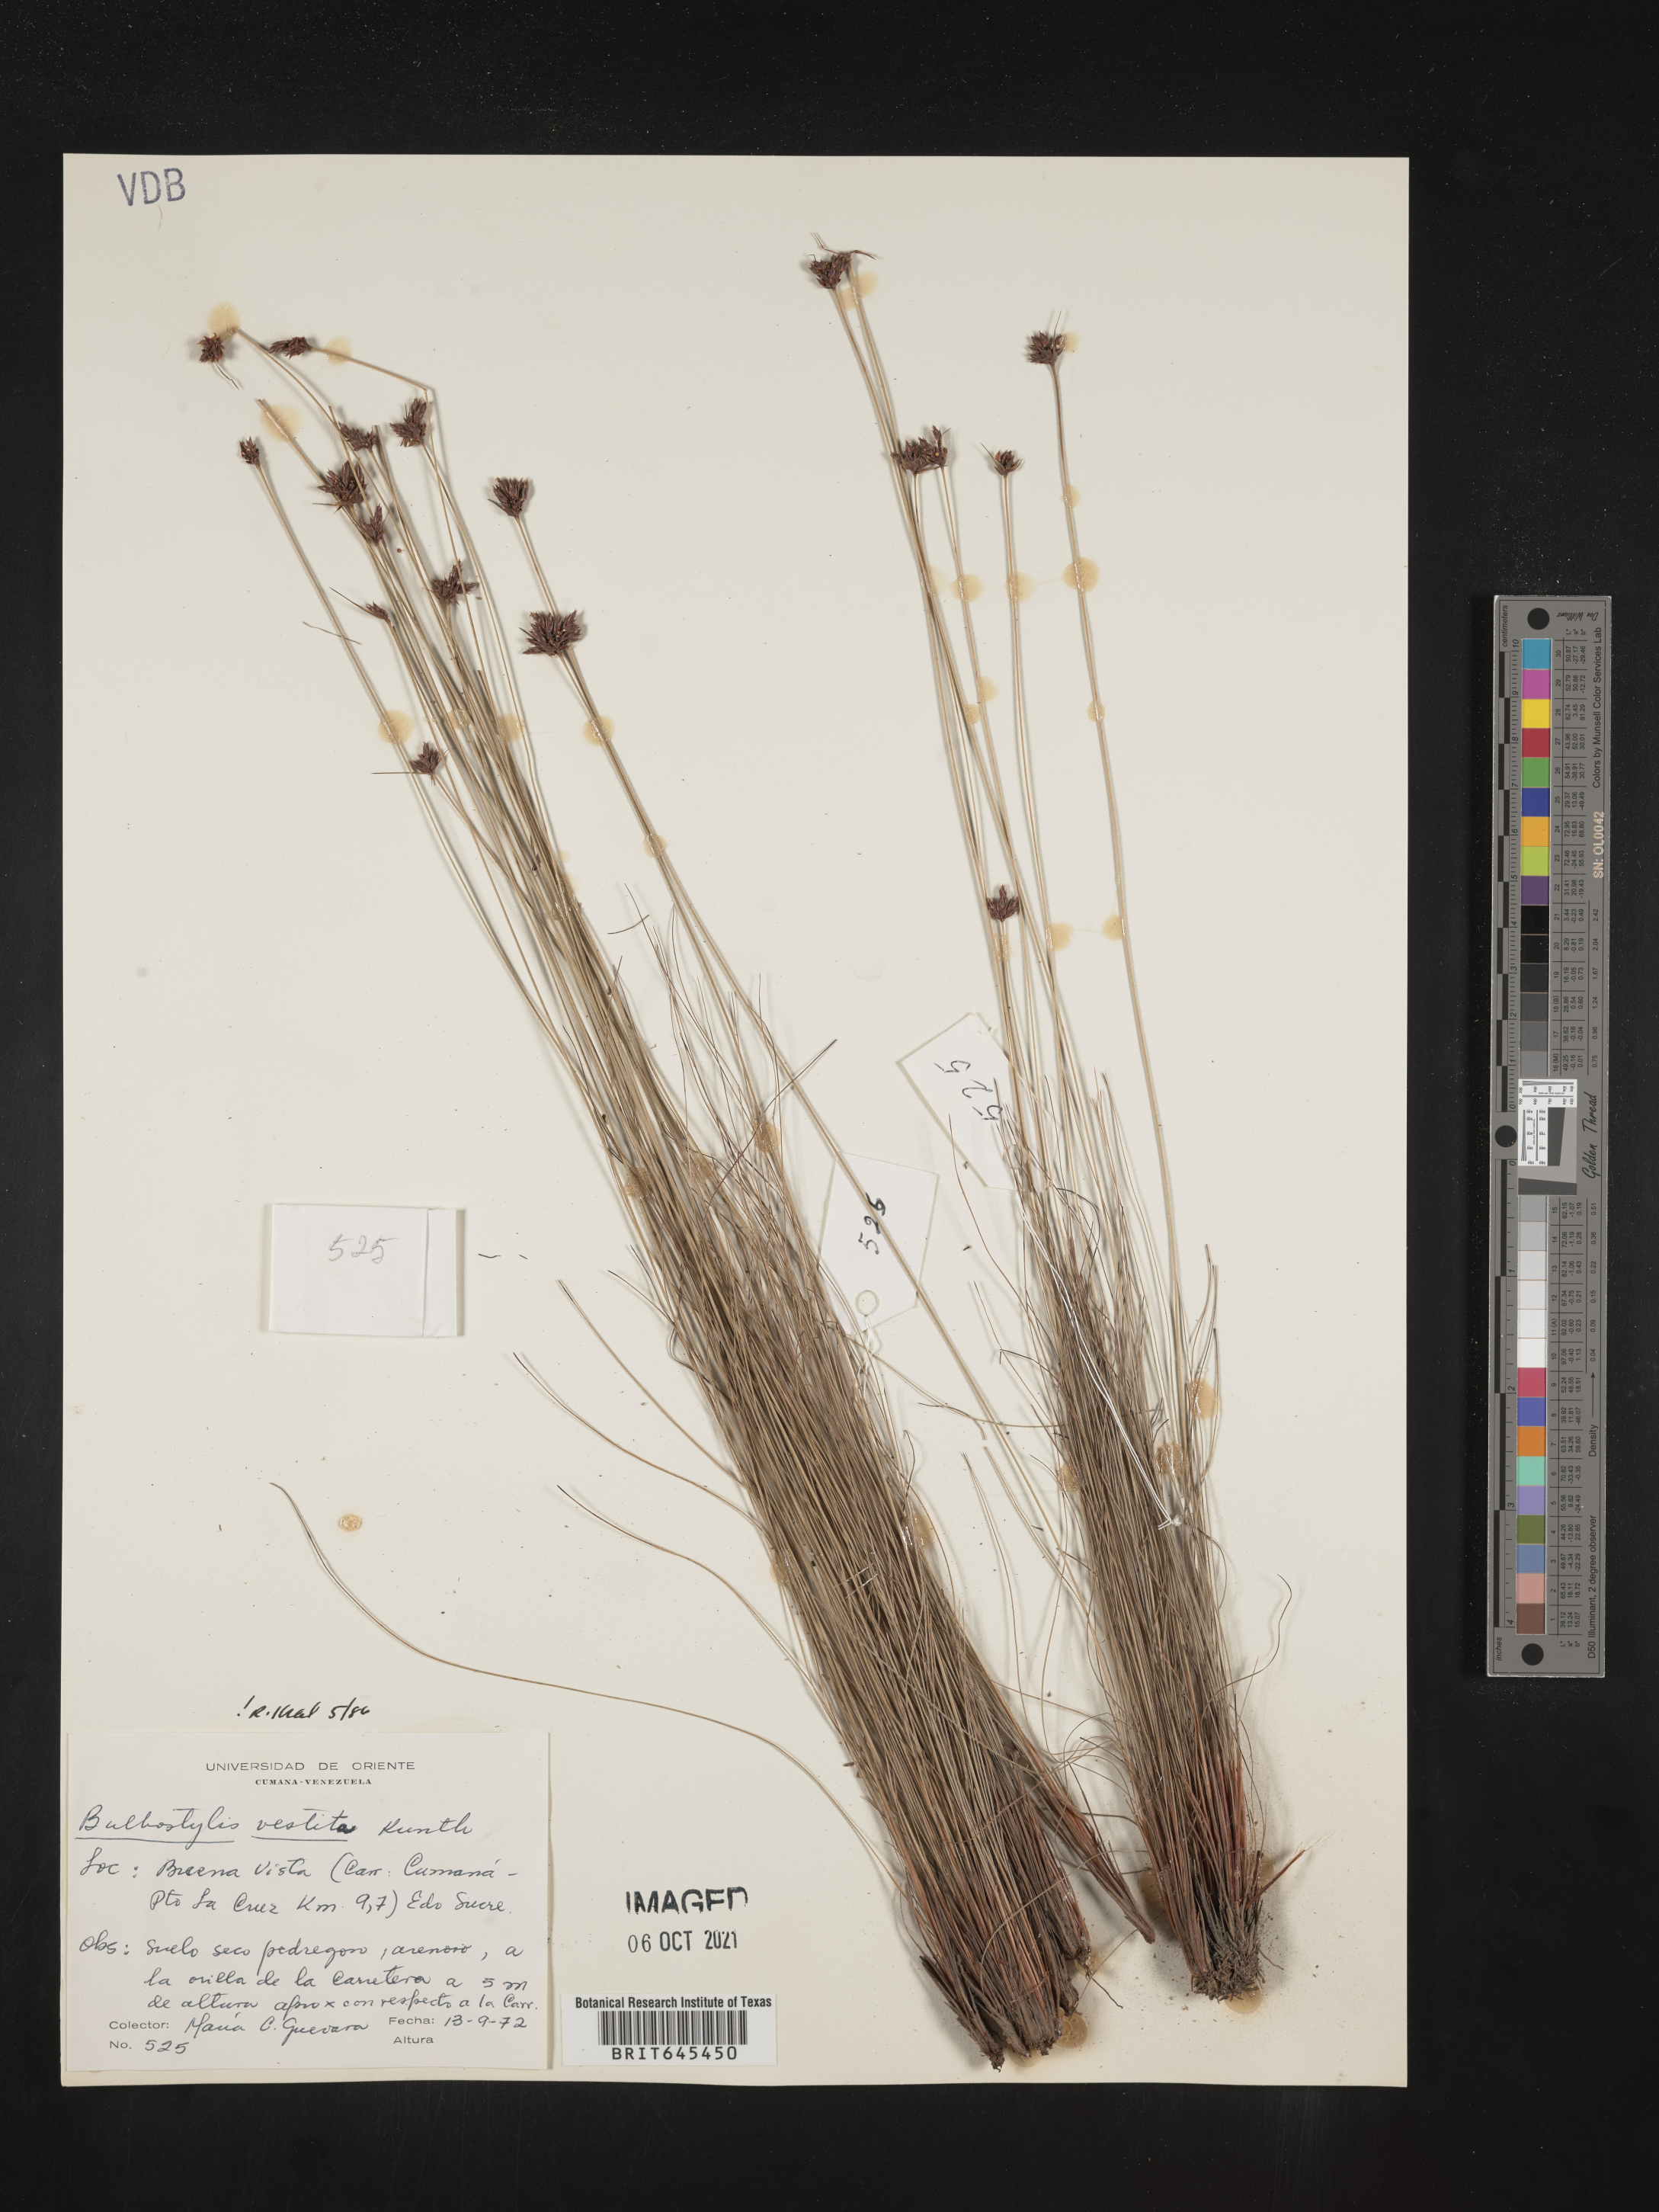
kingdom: Plantae
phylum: Tracheophyta
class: Liliopsida
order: Poales
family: Cyperaceae
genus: Bulbostylis
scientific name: Bulbostylis vestita
